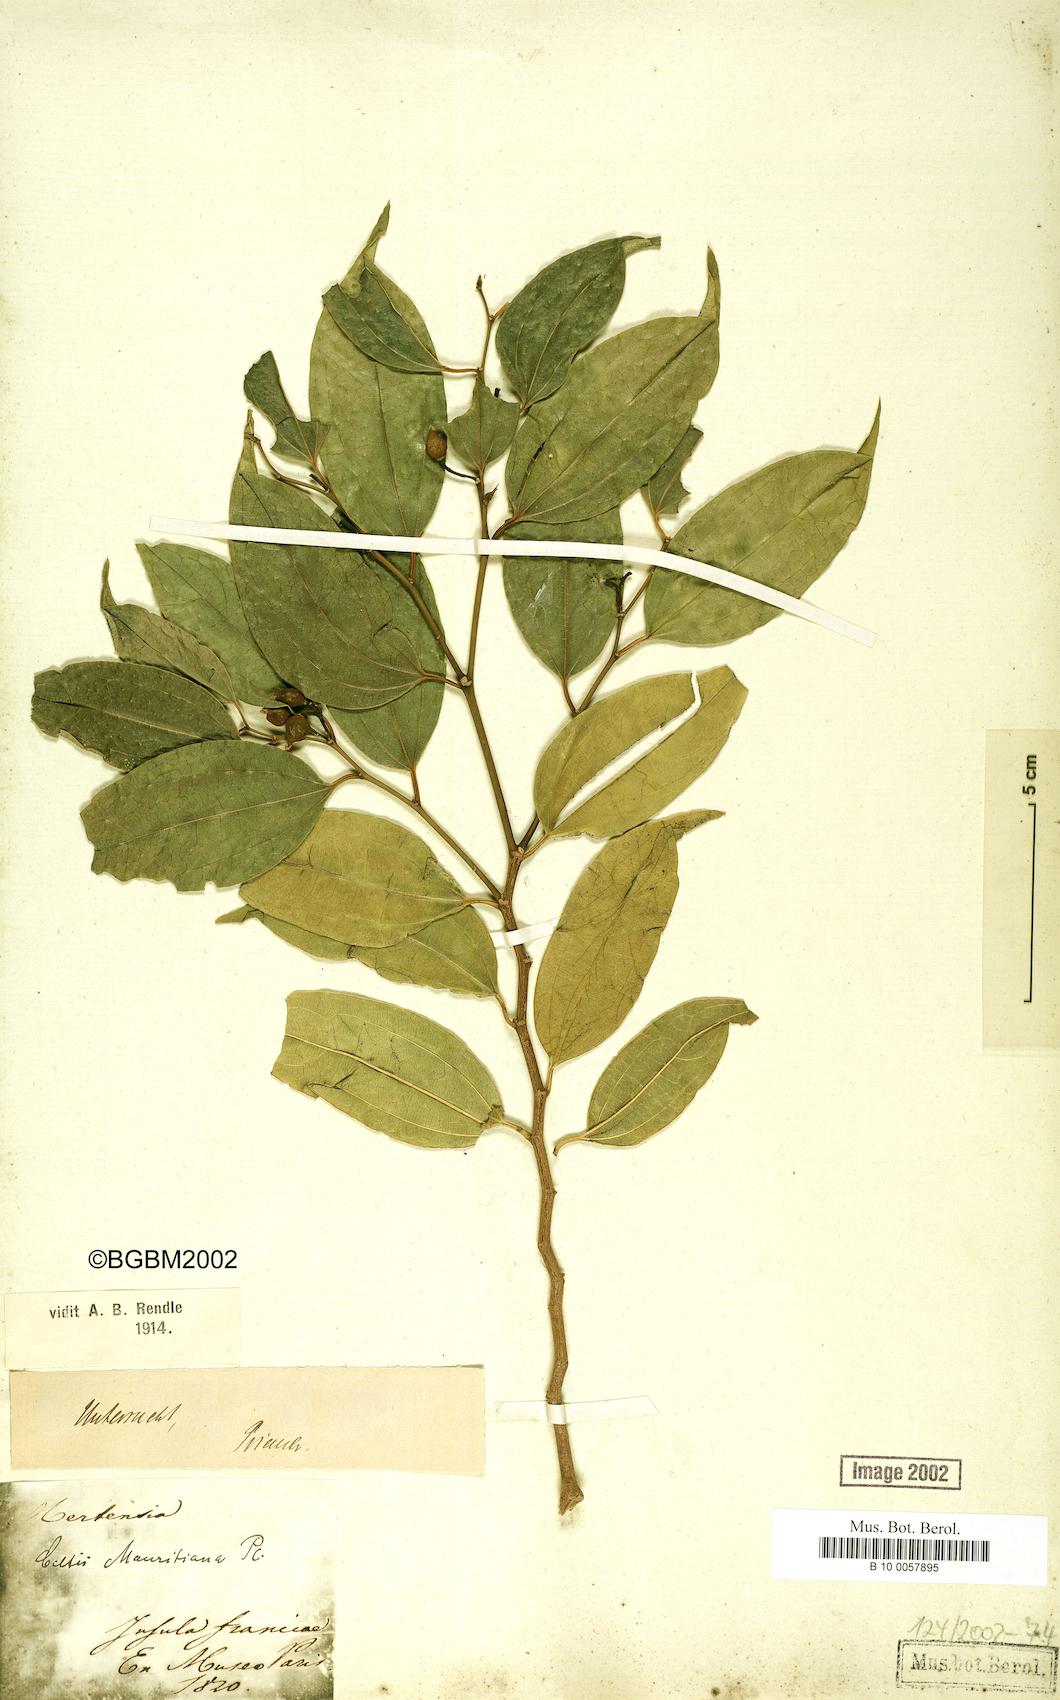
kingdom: Plantae
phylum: Tracheophyta
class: Magnoliopsida
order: Rosales
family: Cannabaceae
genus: Celtis
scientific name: Celtis philippensis
